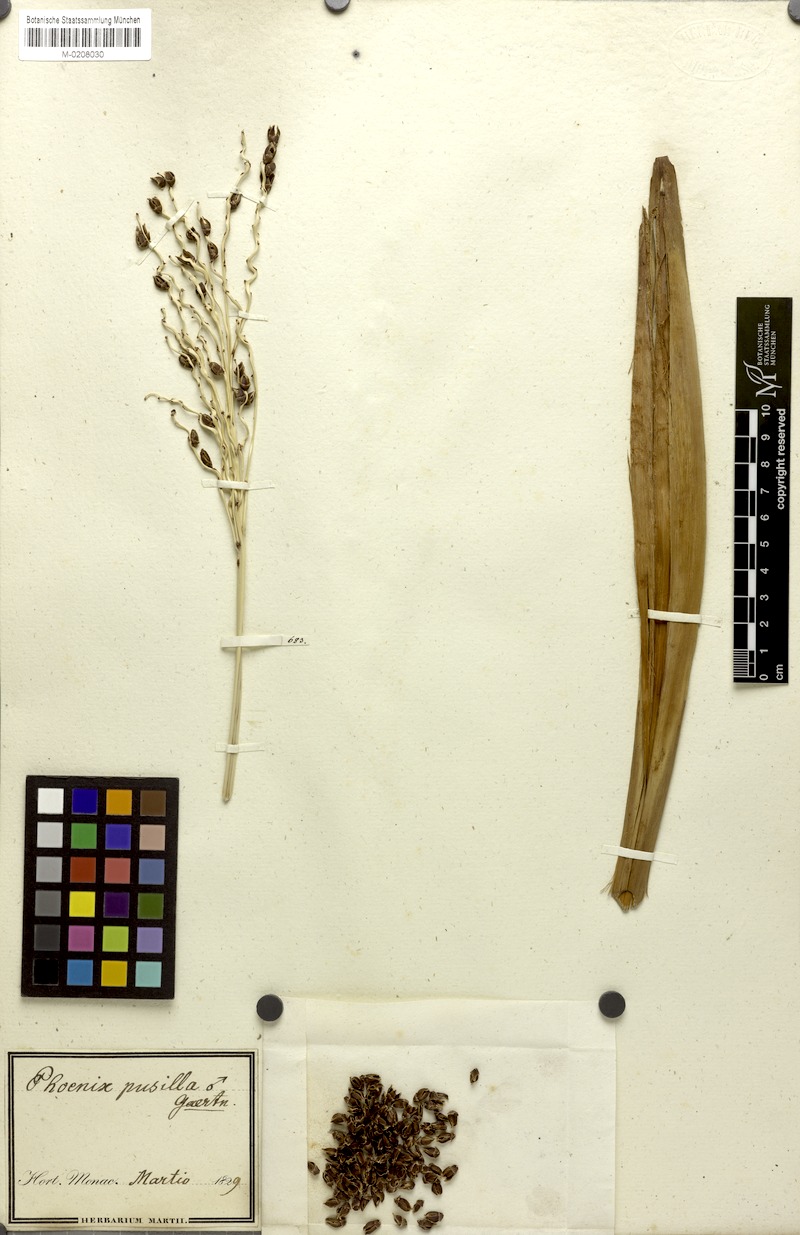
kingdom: Plantae
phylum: Tracheophyta
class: Liliopsida
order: Arecales
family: Arecaceae
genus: Phoenix
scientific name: Phoenix pusilla
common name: Flour palm
